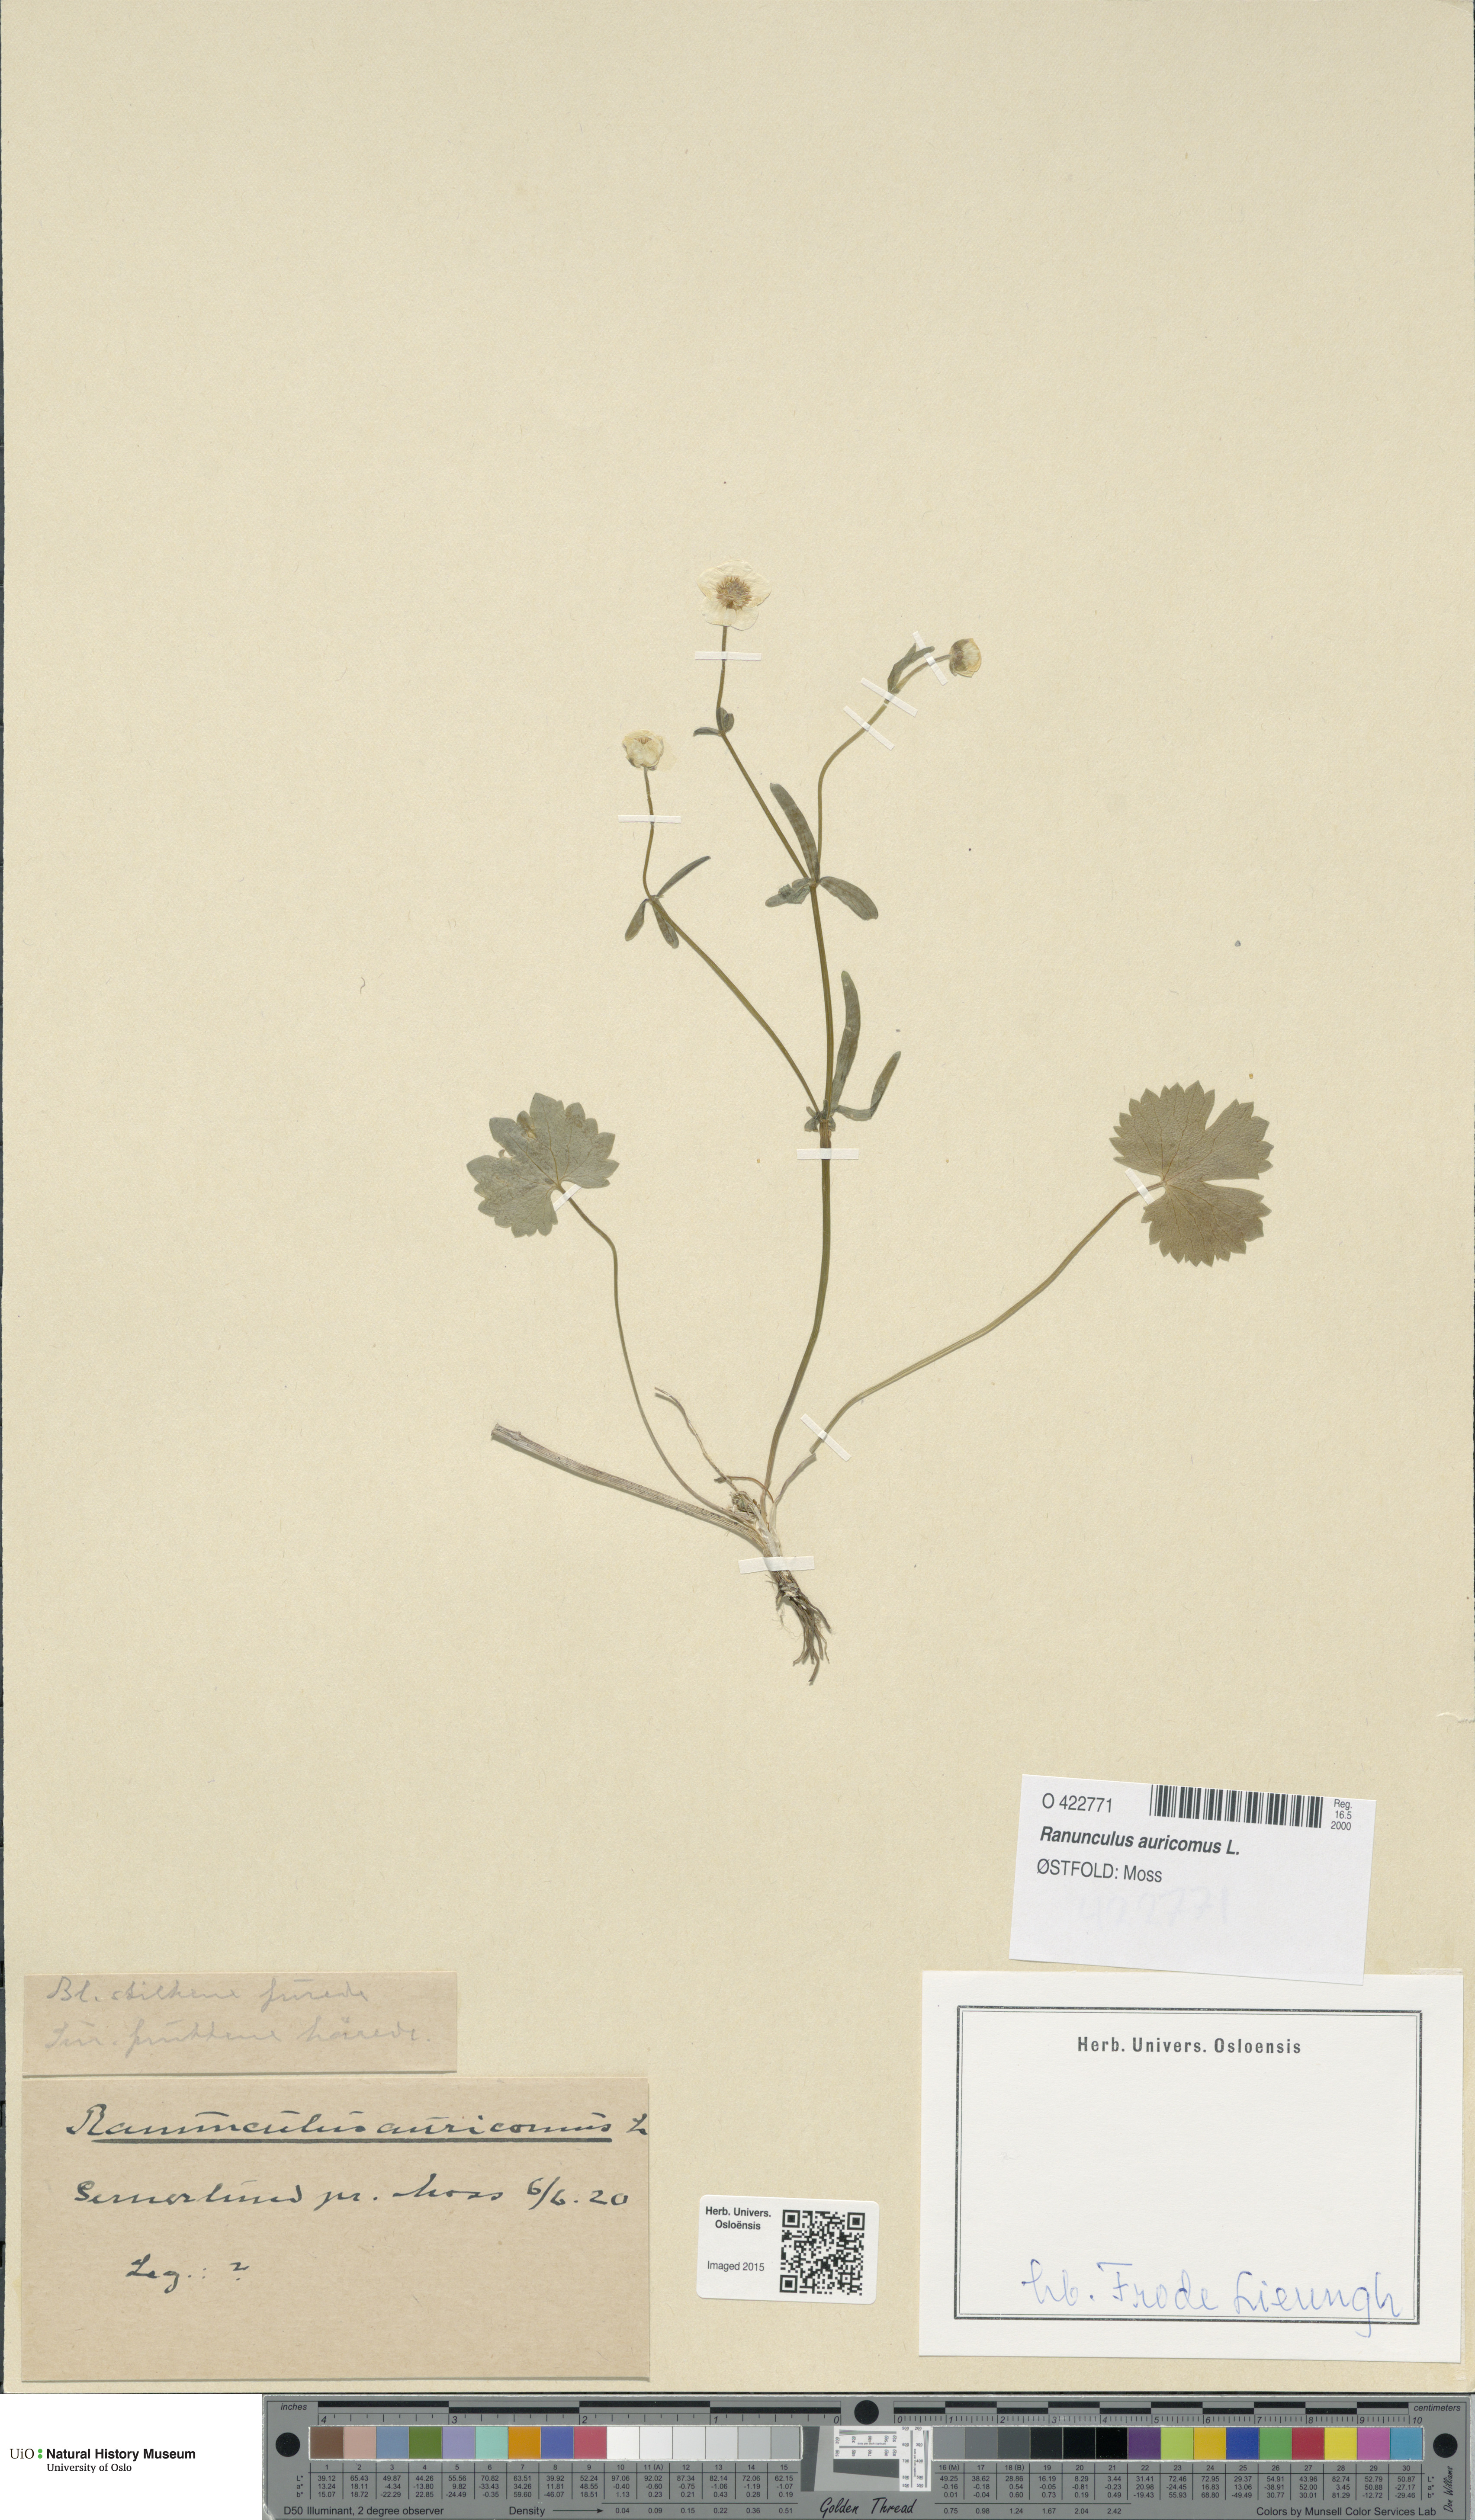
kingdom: Plantae
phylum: Tracheophyta
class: Magnoliopsida
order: Ranunculales
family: Ranunculaceae
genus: Ranunculus
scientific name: Ranunculus auricomus
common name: Goldilocks buttercup
